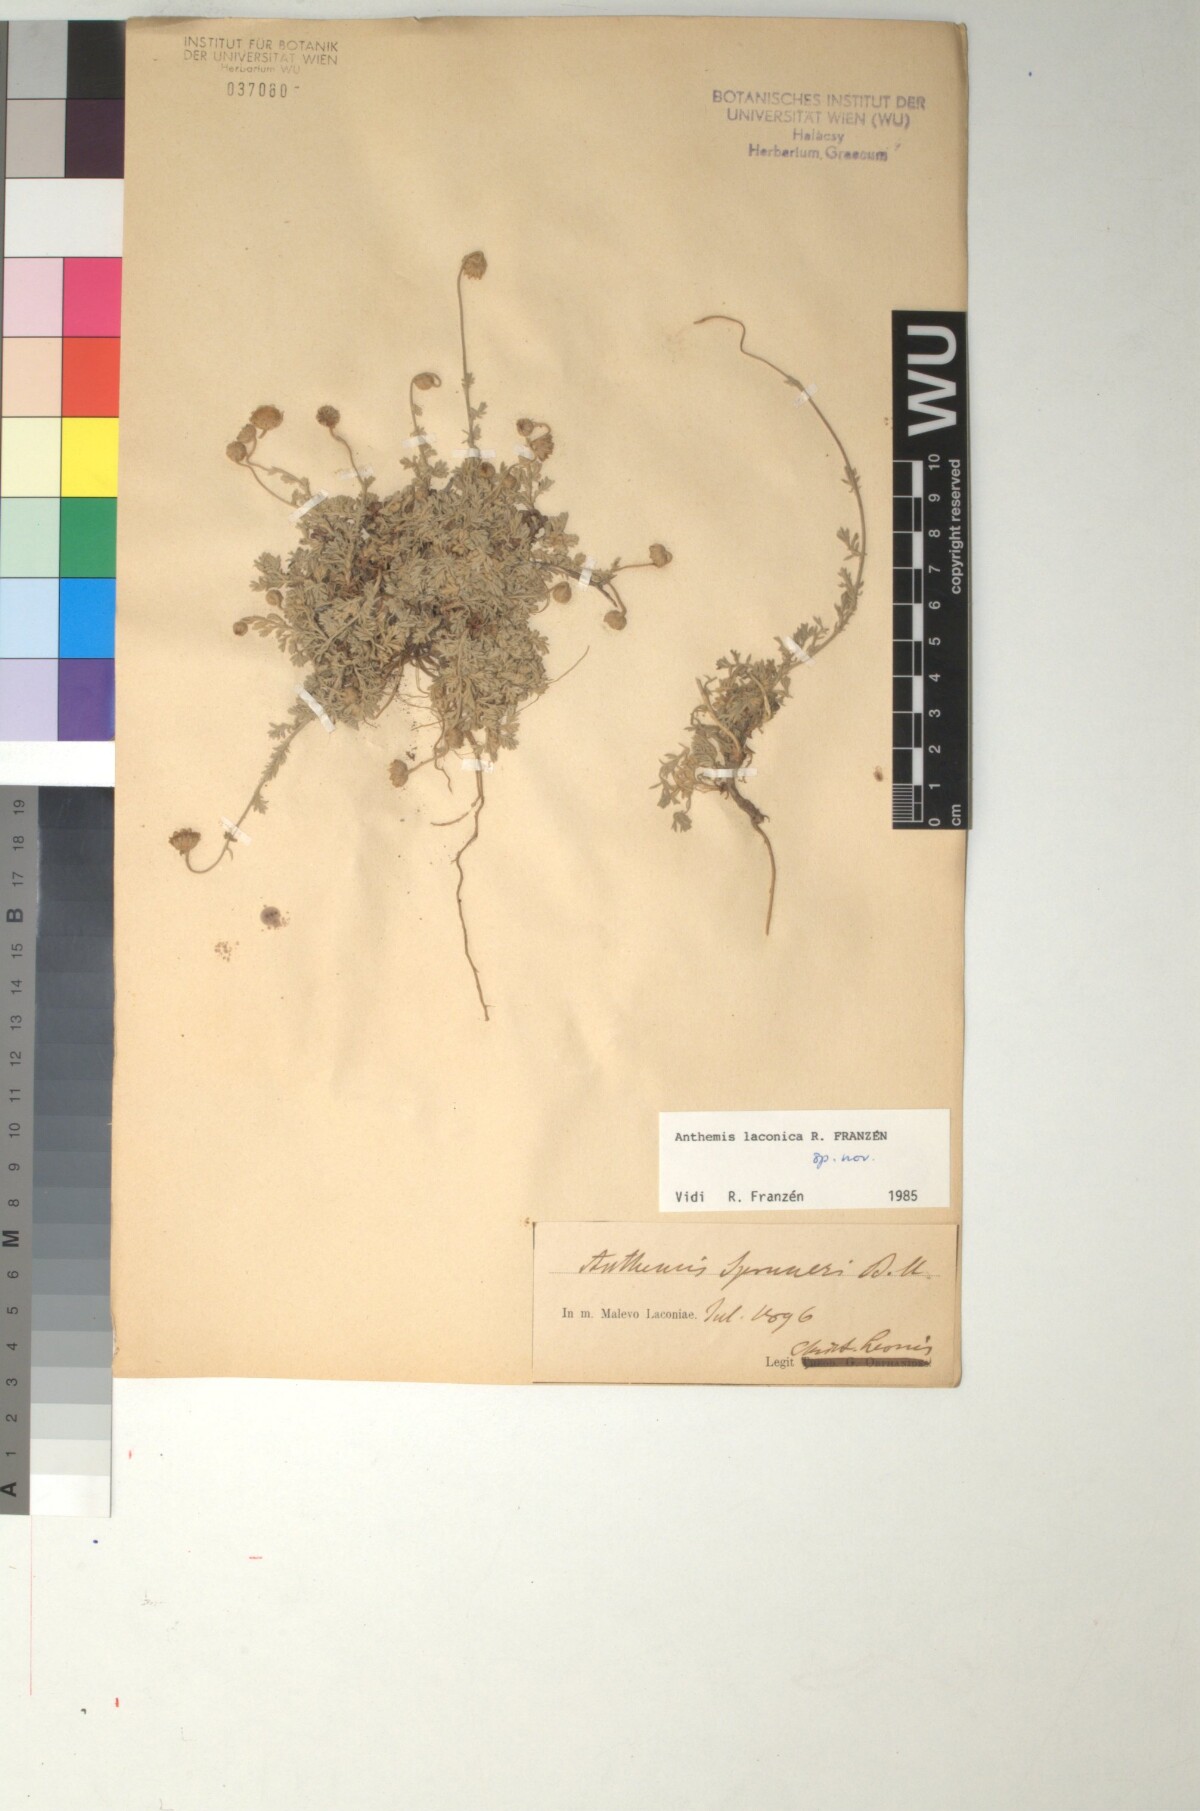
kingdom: Plantae
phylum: Tracheophyta
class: Magnoliopsida
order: Asterales
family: Asteraceae
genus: Anthemis
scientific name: Anthemis laconica
